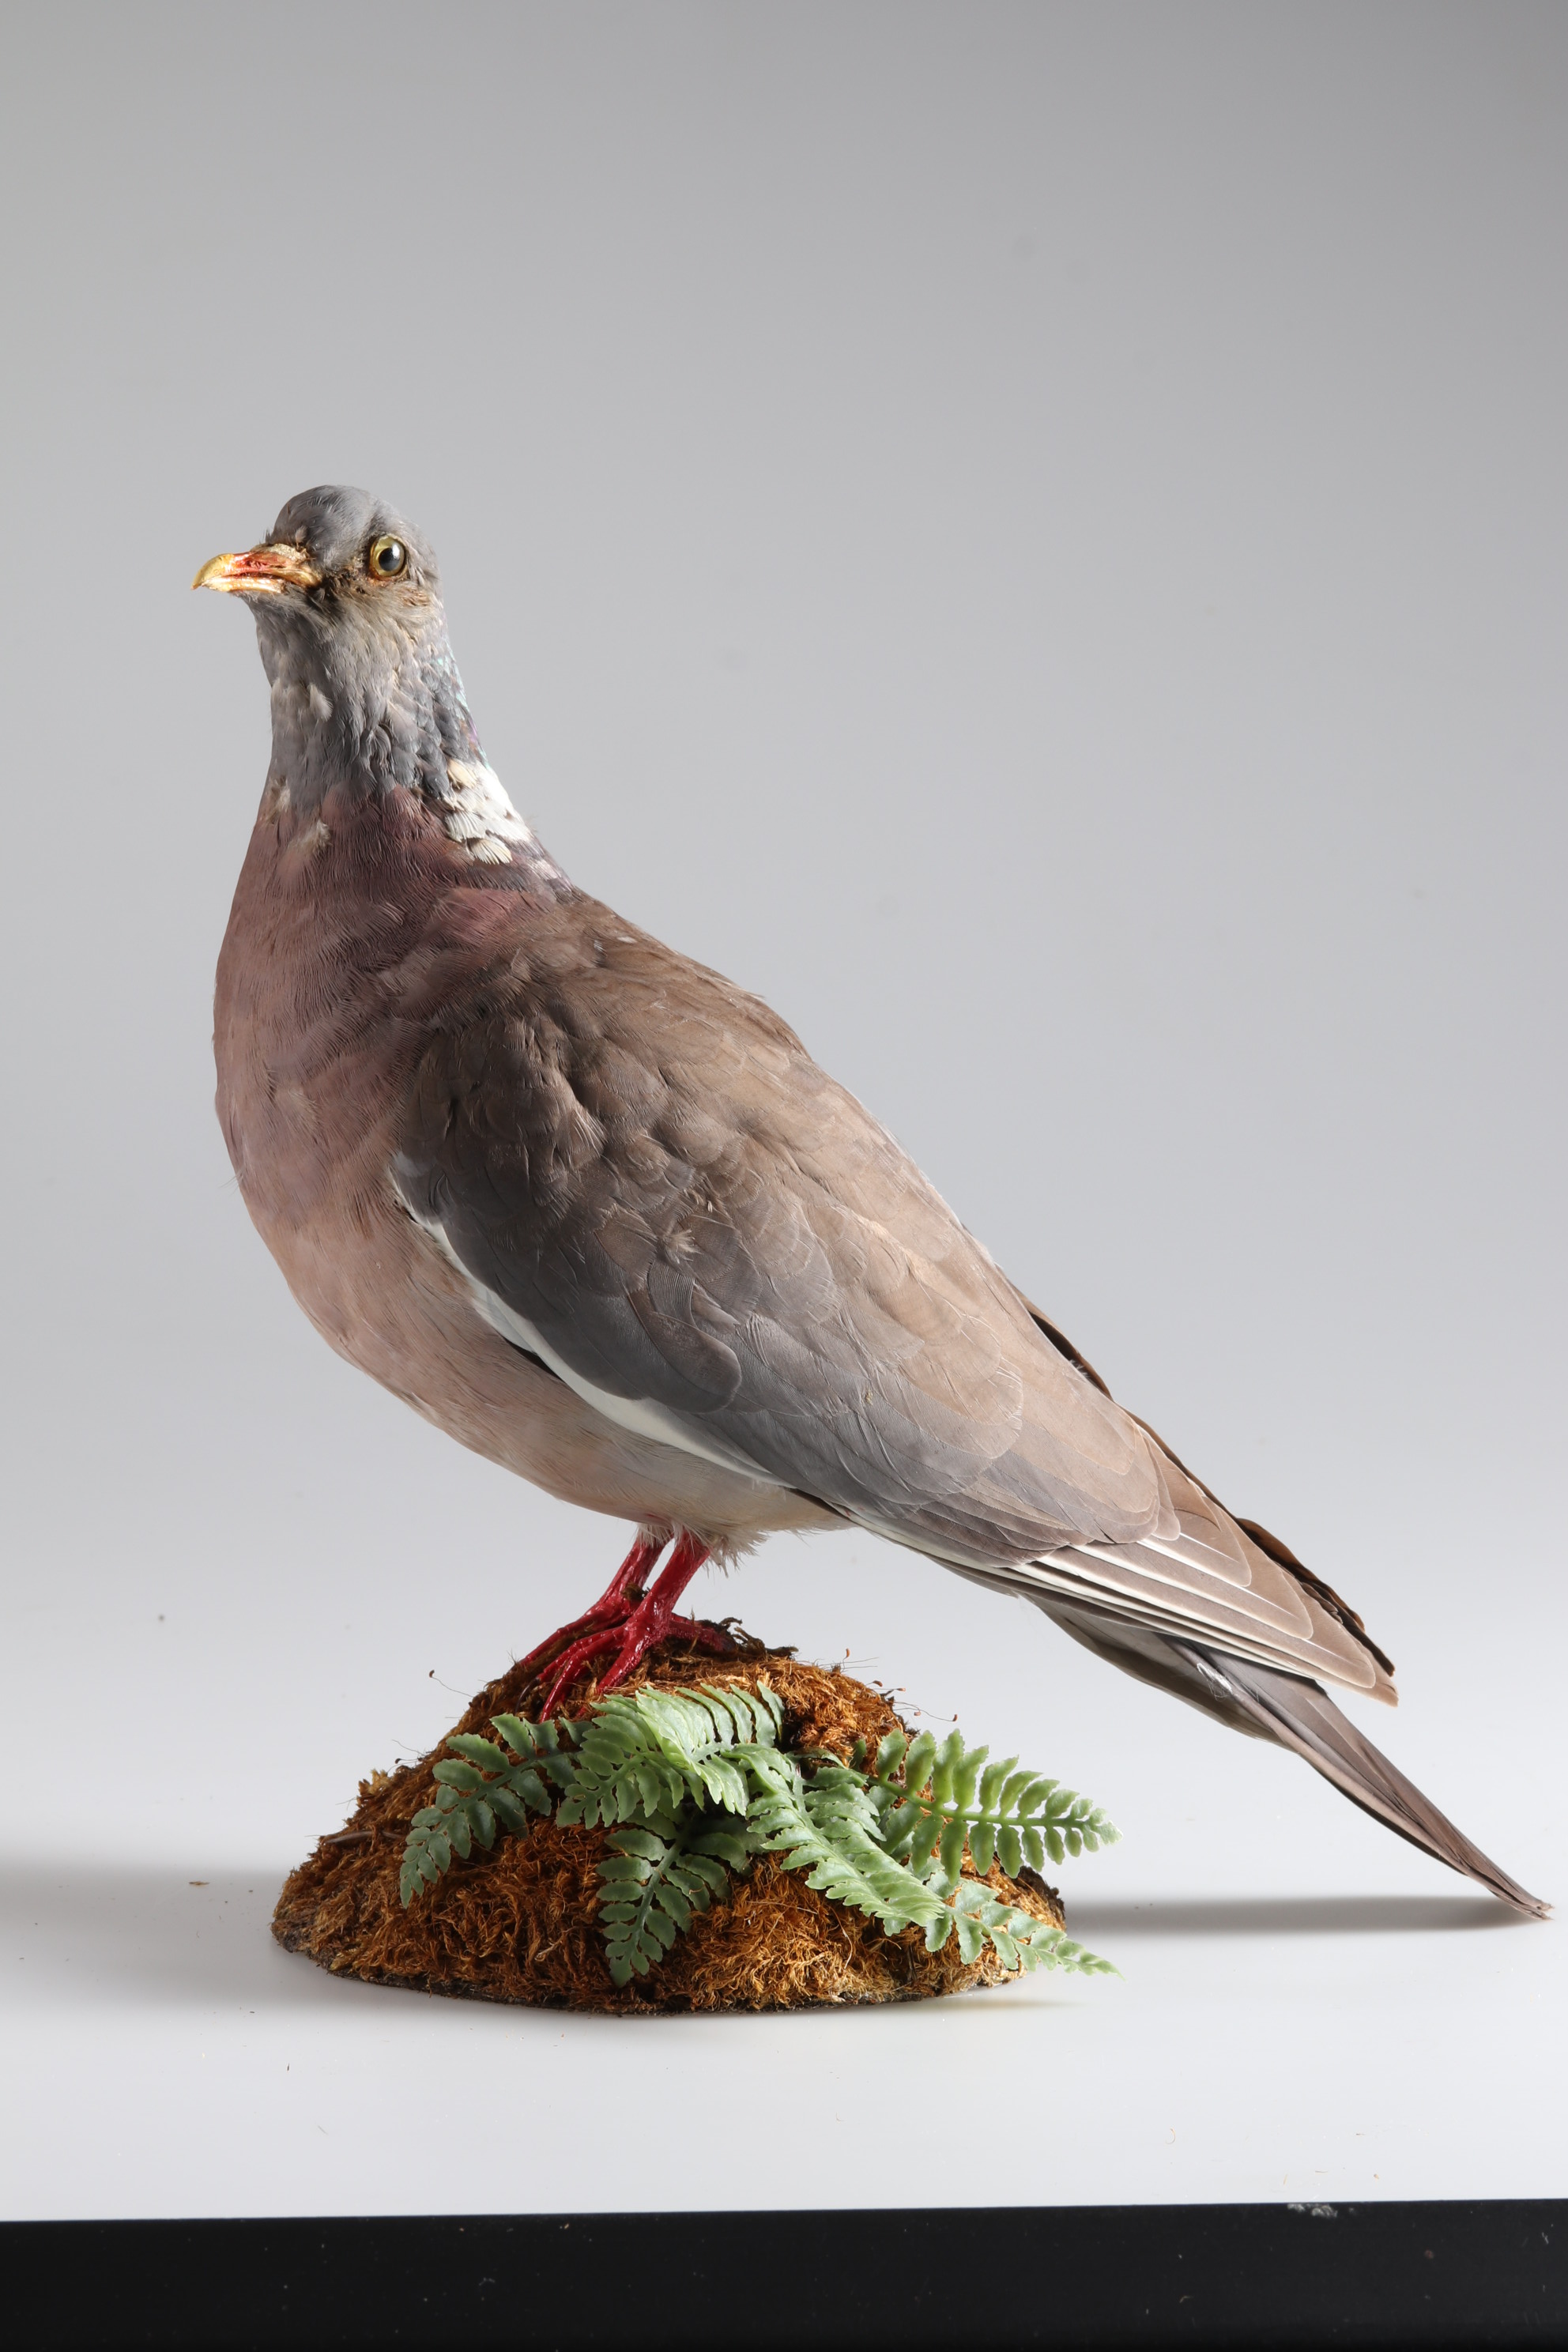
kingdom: Animalia
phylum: Chordata
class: Aves
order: Columbiformes
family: Columbidae
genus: Columba
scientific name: Columba palumbus
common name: Common wood pigeon
